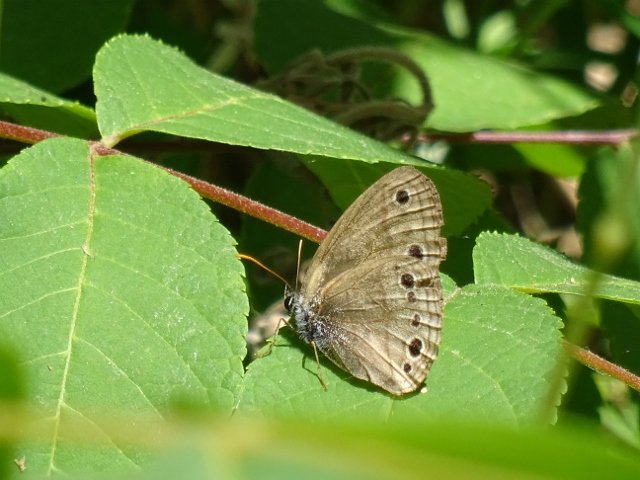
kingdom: Animalia
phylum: Arthropoda
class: Insecta
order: Lepidoptera
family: Nymphalidae
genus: Euptychia
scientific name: Euptychia cymela
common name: Little Wood Satyr
